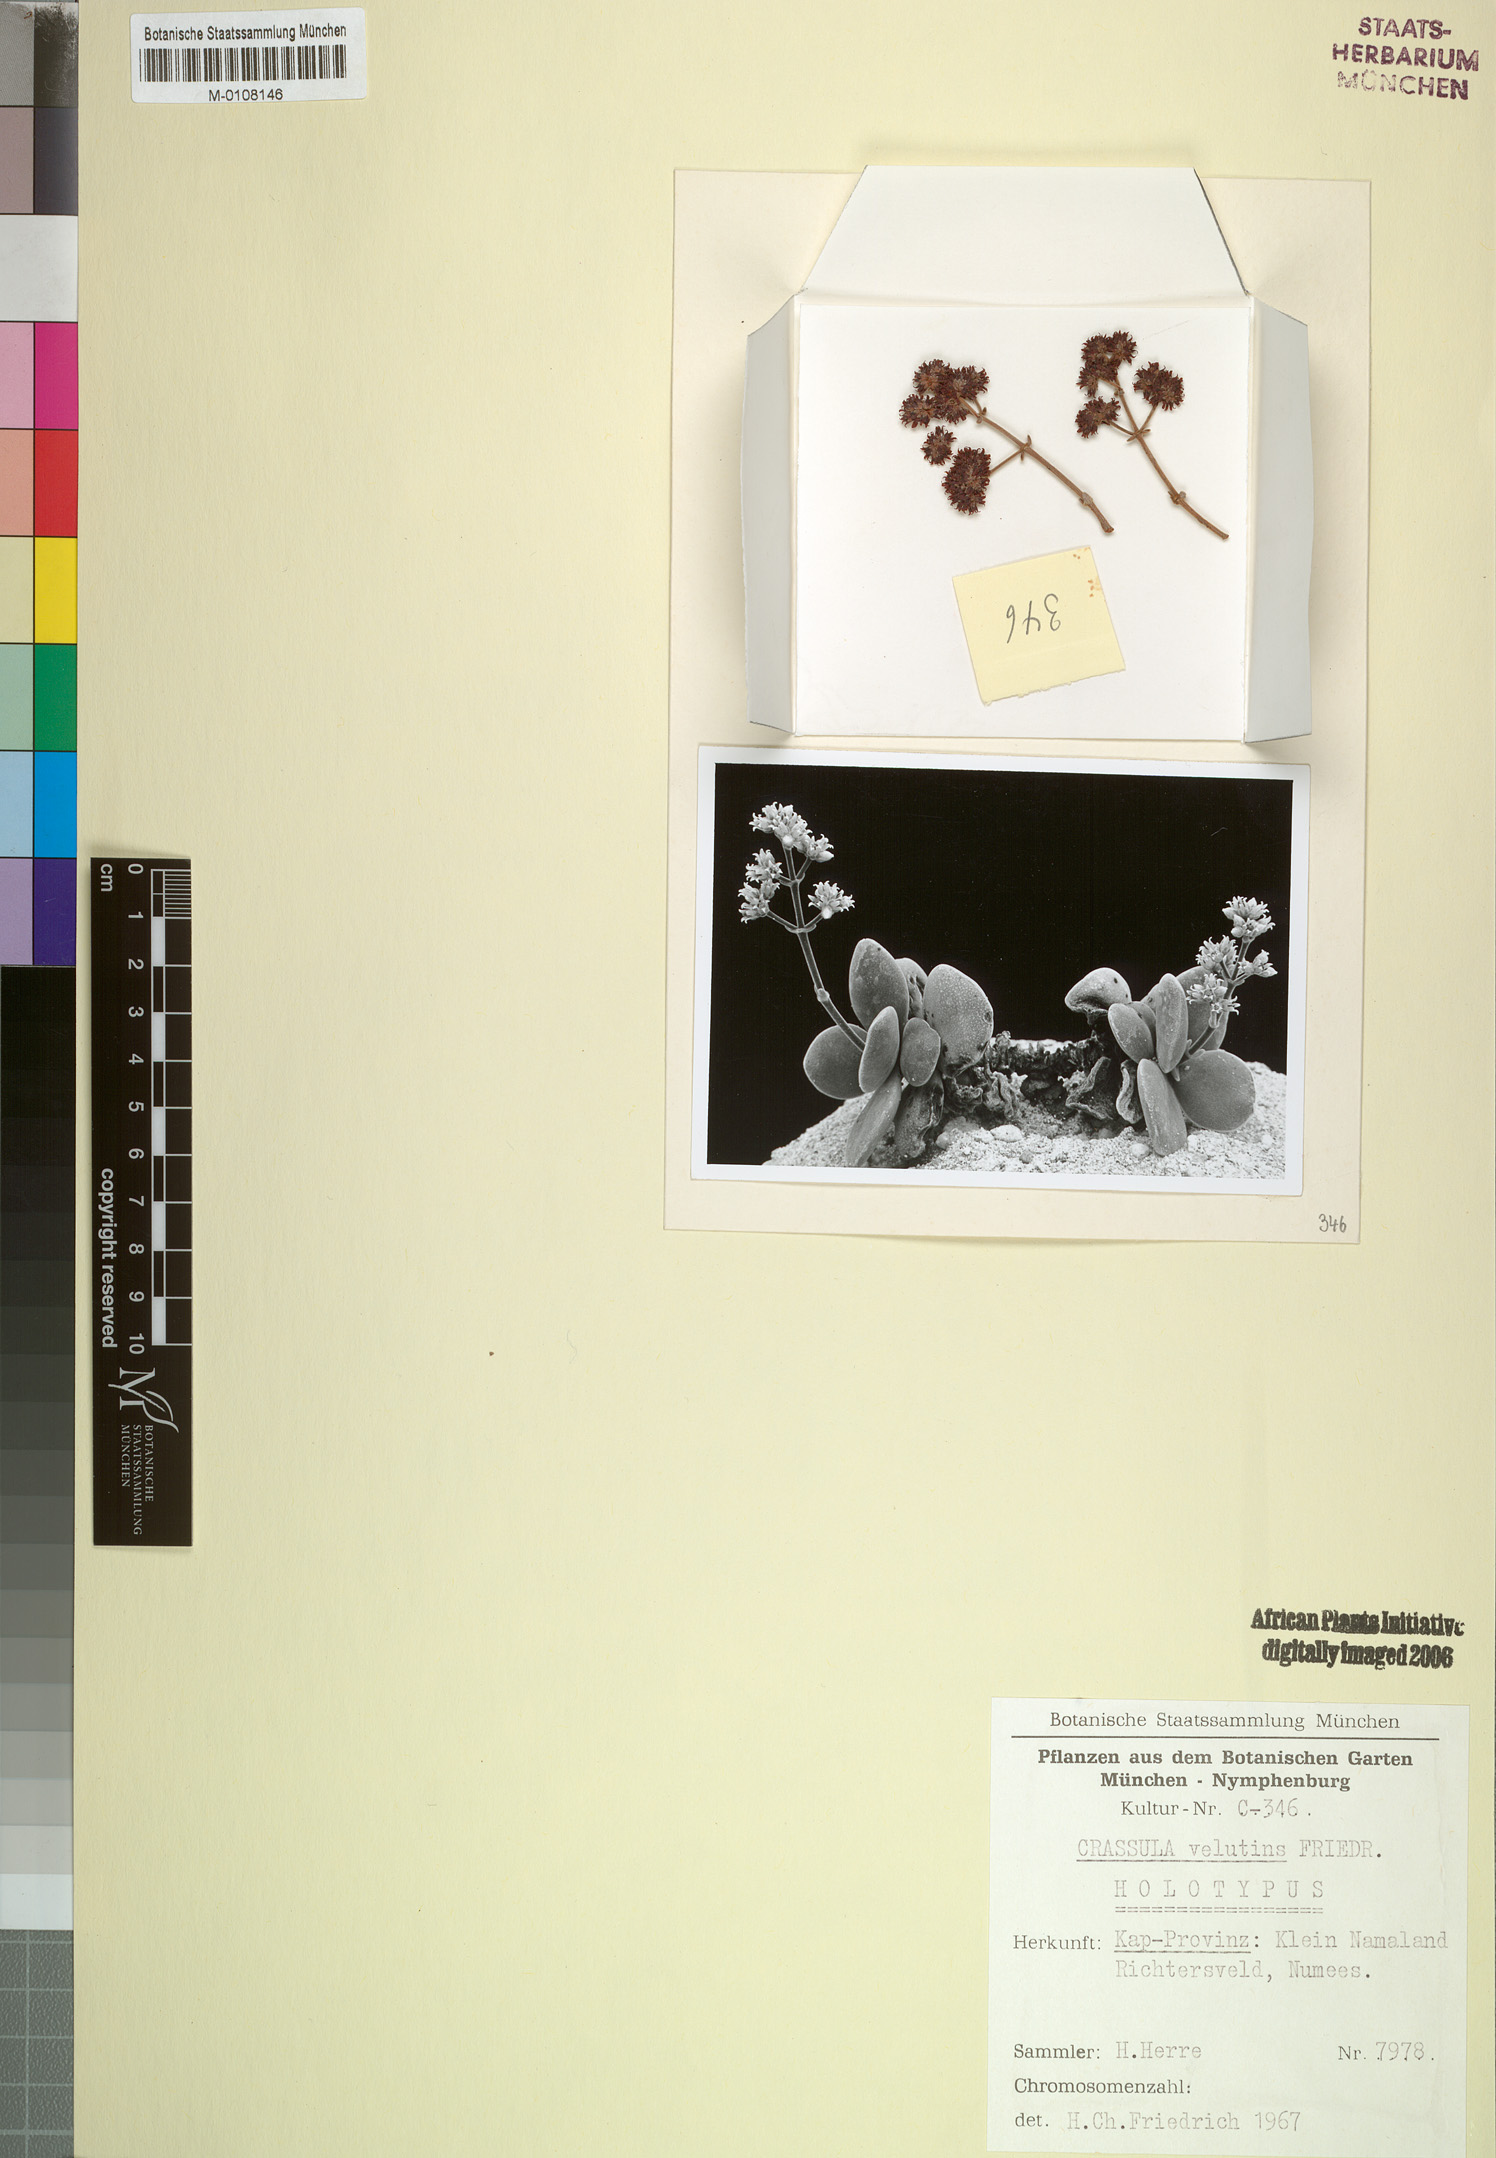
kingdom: Plantae
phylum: Tracheophyta
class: Magnoliopsida
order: Saxifragales
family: Crassulaceae
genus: Crassula
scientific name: Crassula sericea
